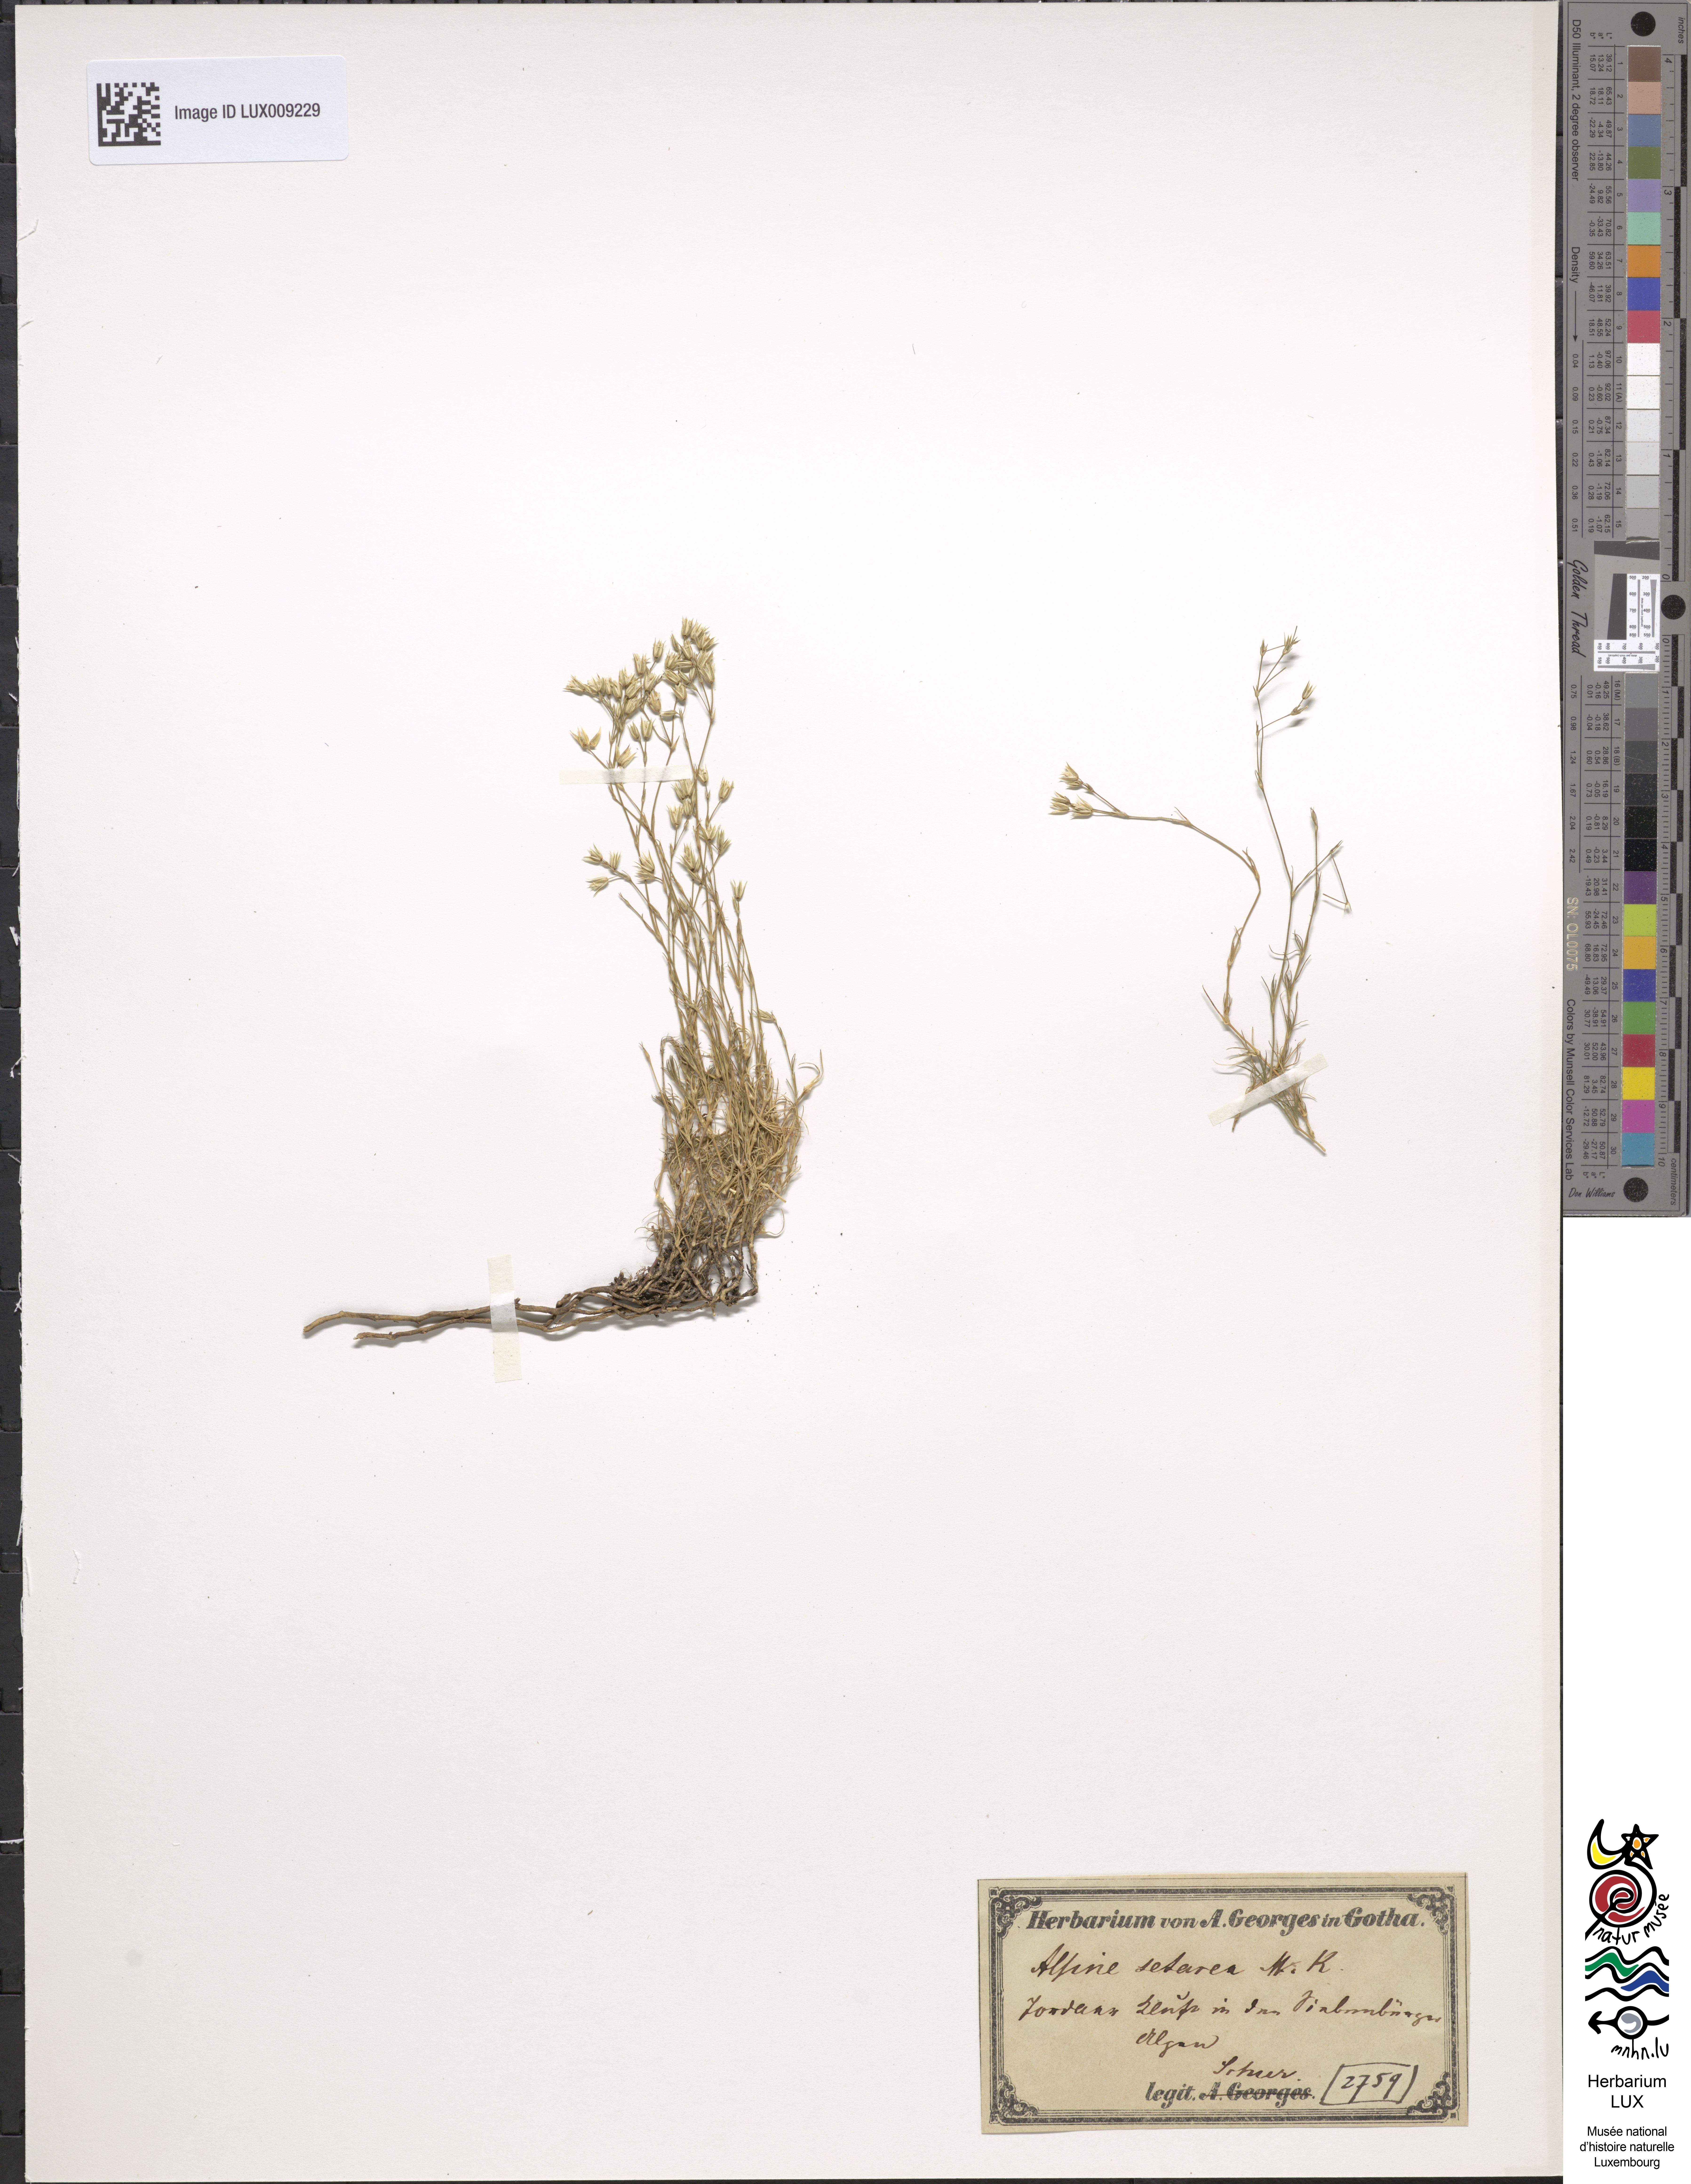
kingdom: Plantae
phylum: Tracheophyta
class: Magnoliopsida
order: Caryophyllales
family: Caryophyllaceae
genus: Minuartia
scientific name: Minuartia setacea
